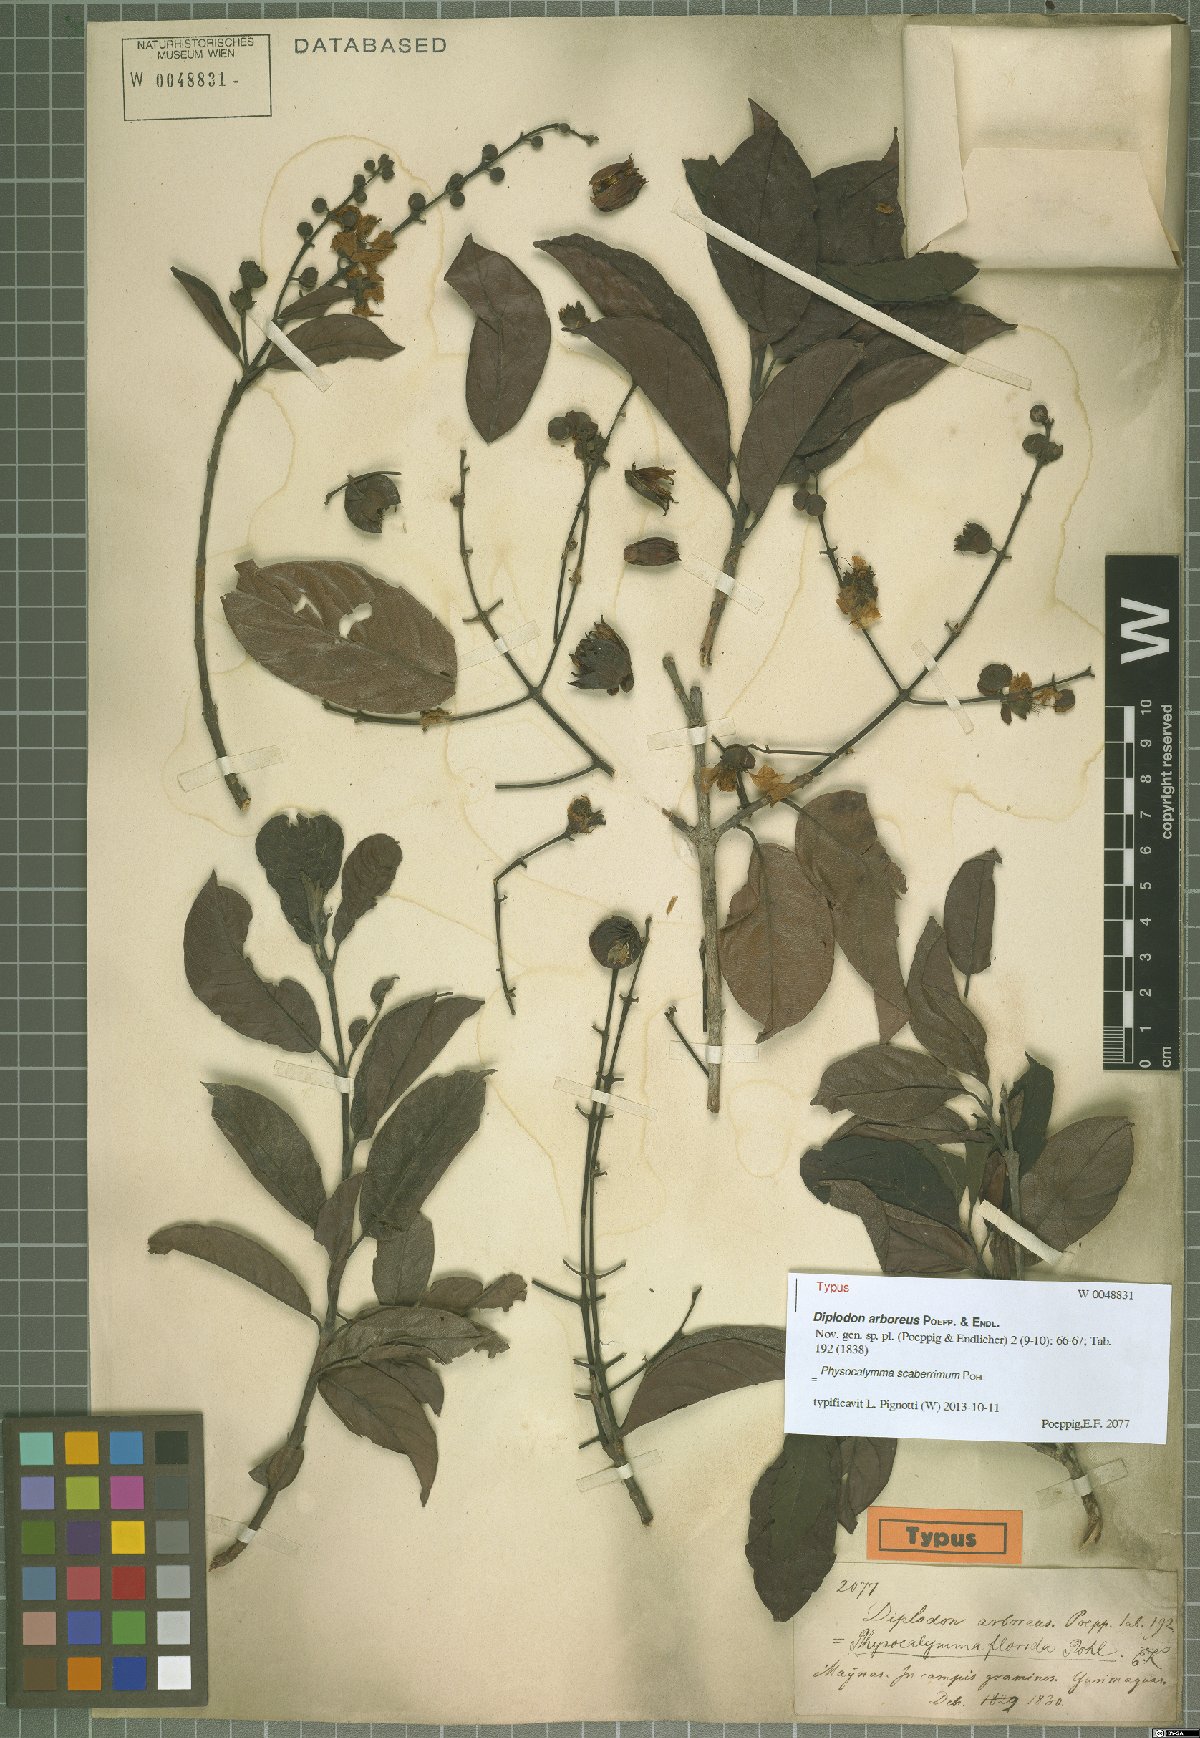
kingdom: Plantae
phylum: Tracheophyta
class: Magnoliopsida
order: Myrtales
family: Lythraceae
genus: Physocalymma
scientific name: Physocalymma scaberrimum
